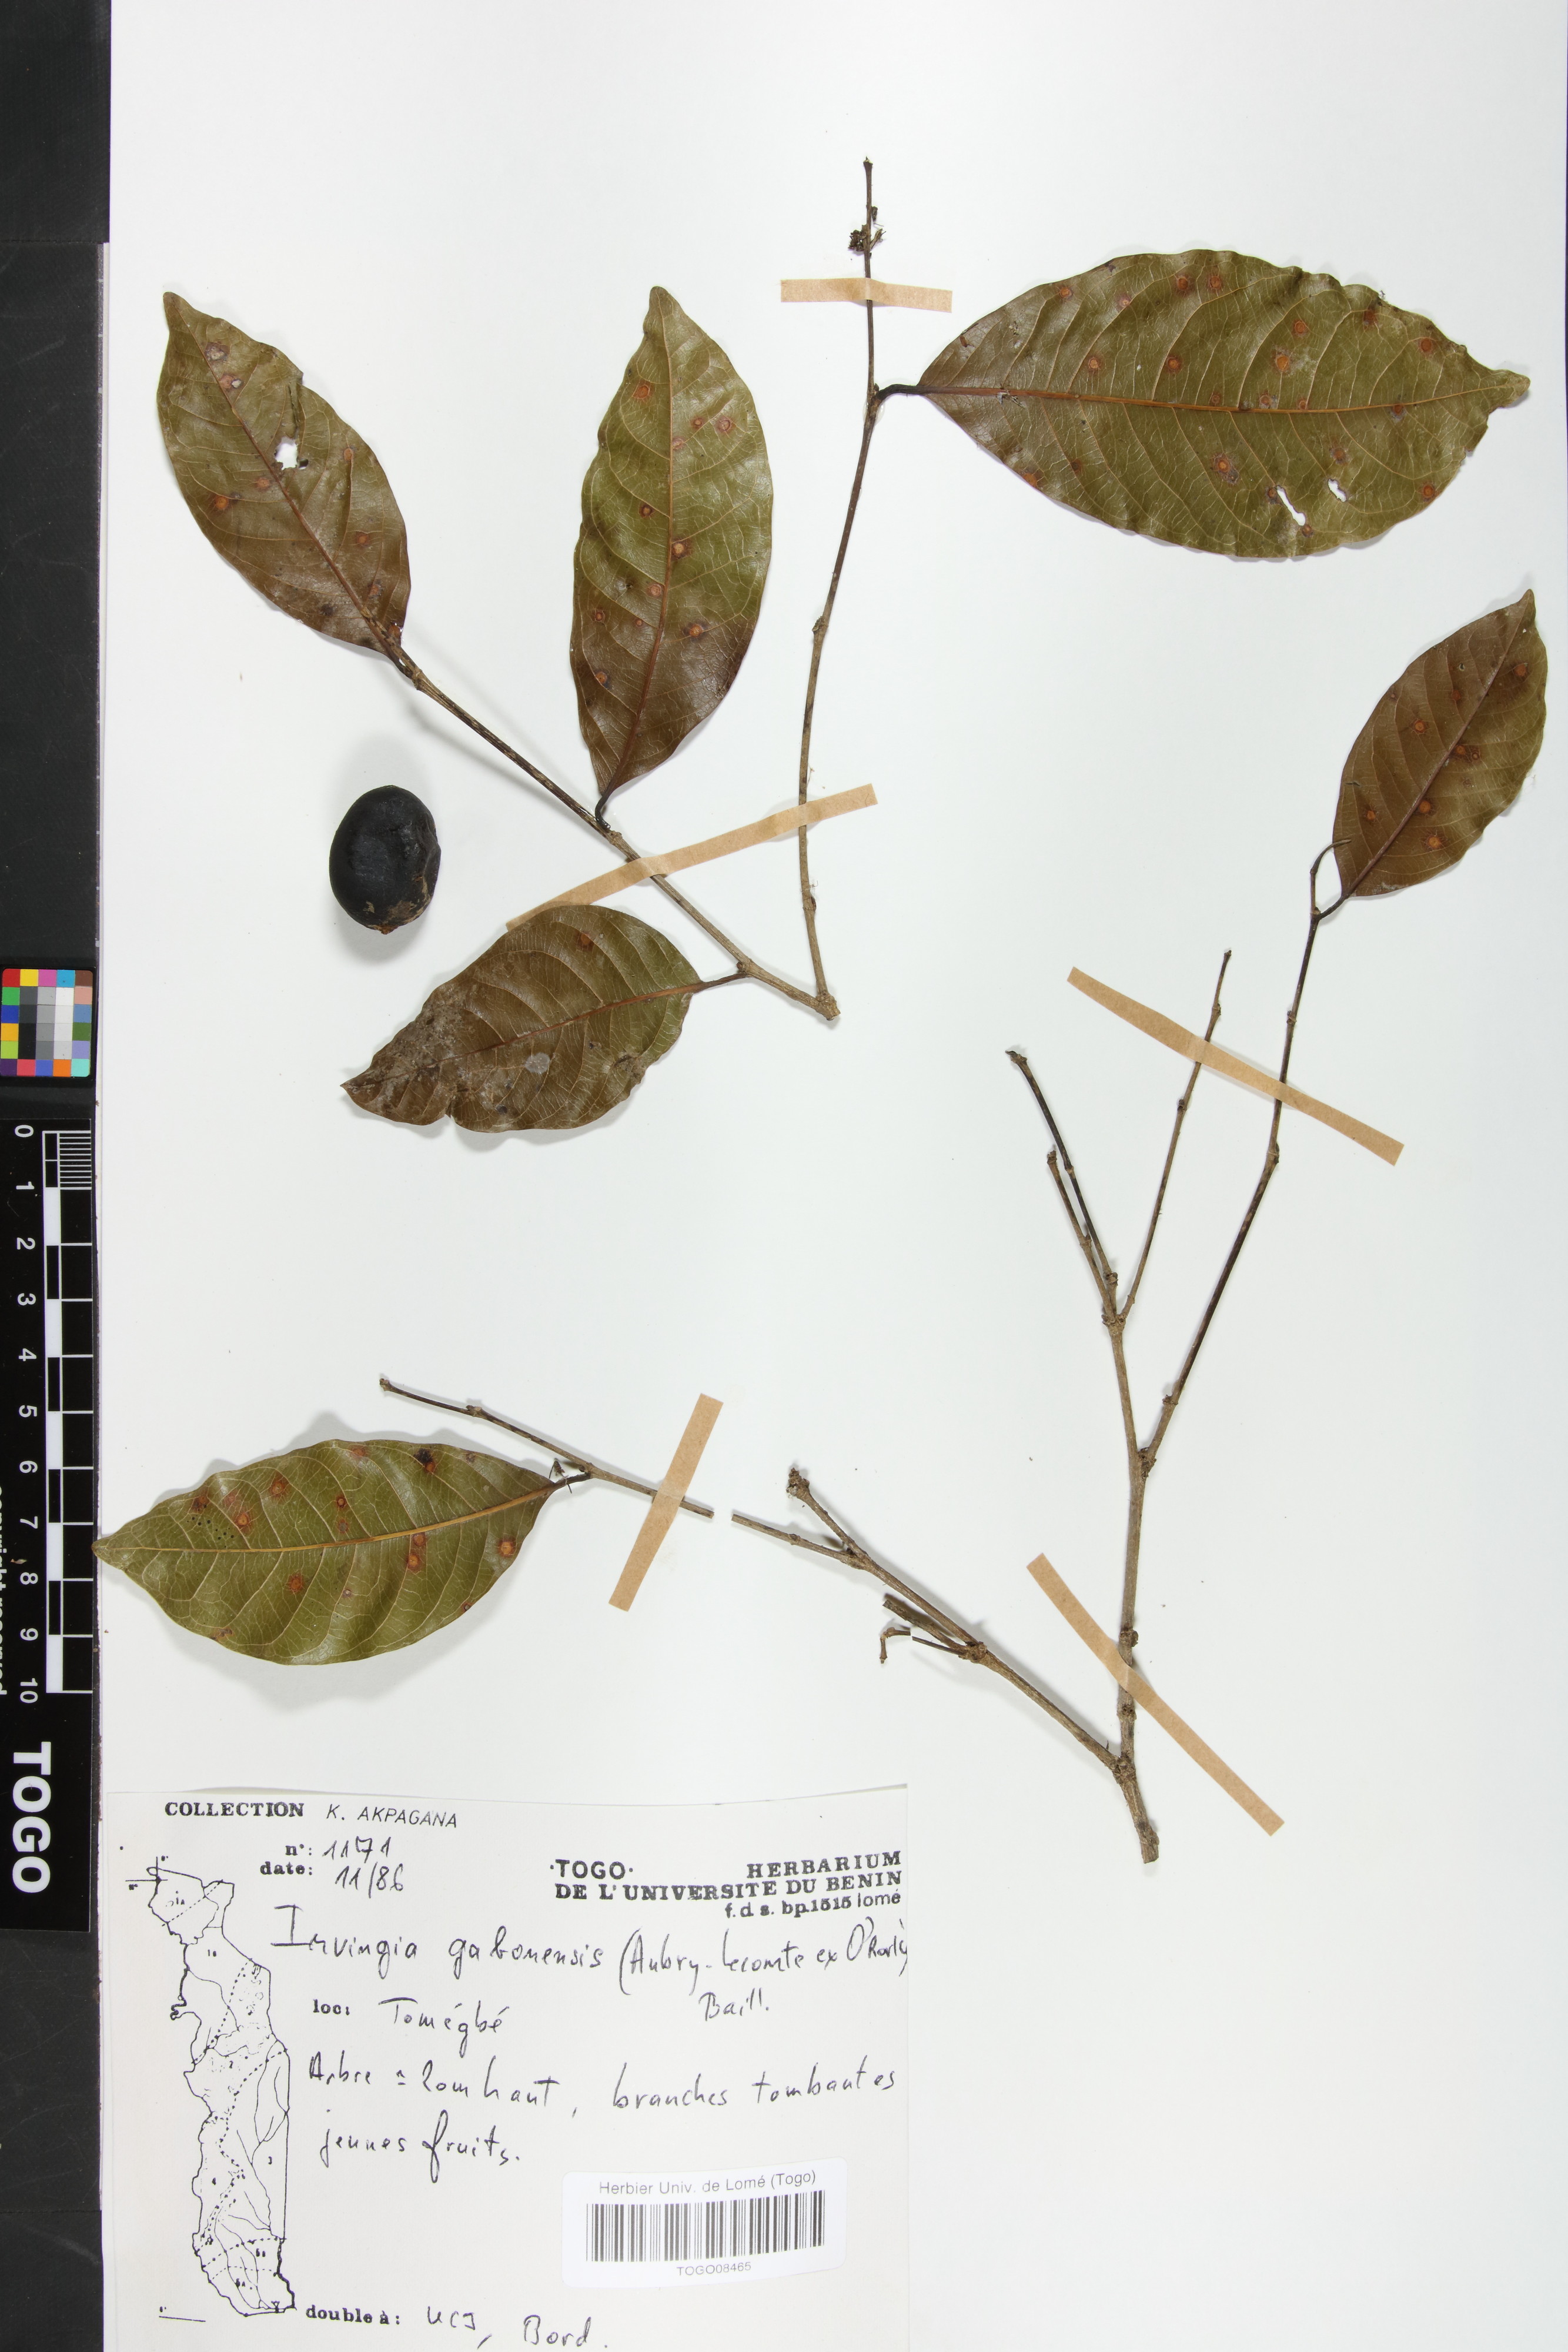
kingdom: Plantae
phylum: Tracheophyta
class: Magnoliopsida
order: Malpighiales
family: Irvingiaceae
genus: Irvingia
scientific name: Irvingia gabonensis
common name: Rainy season bush-mango
